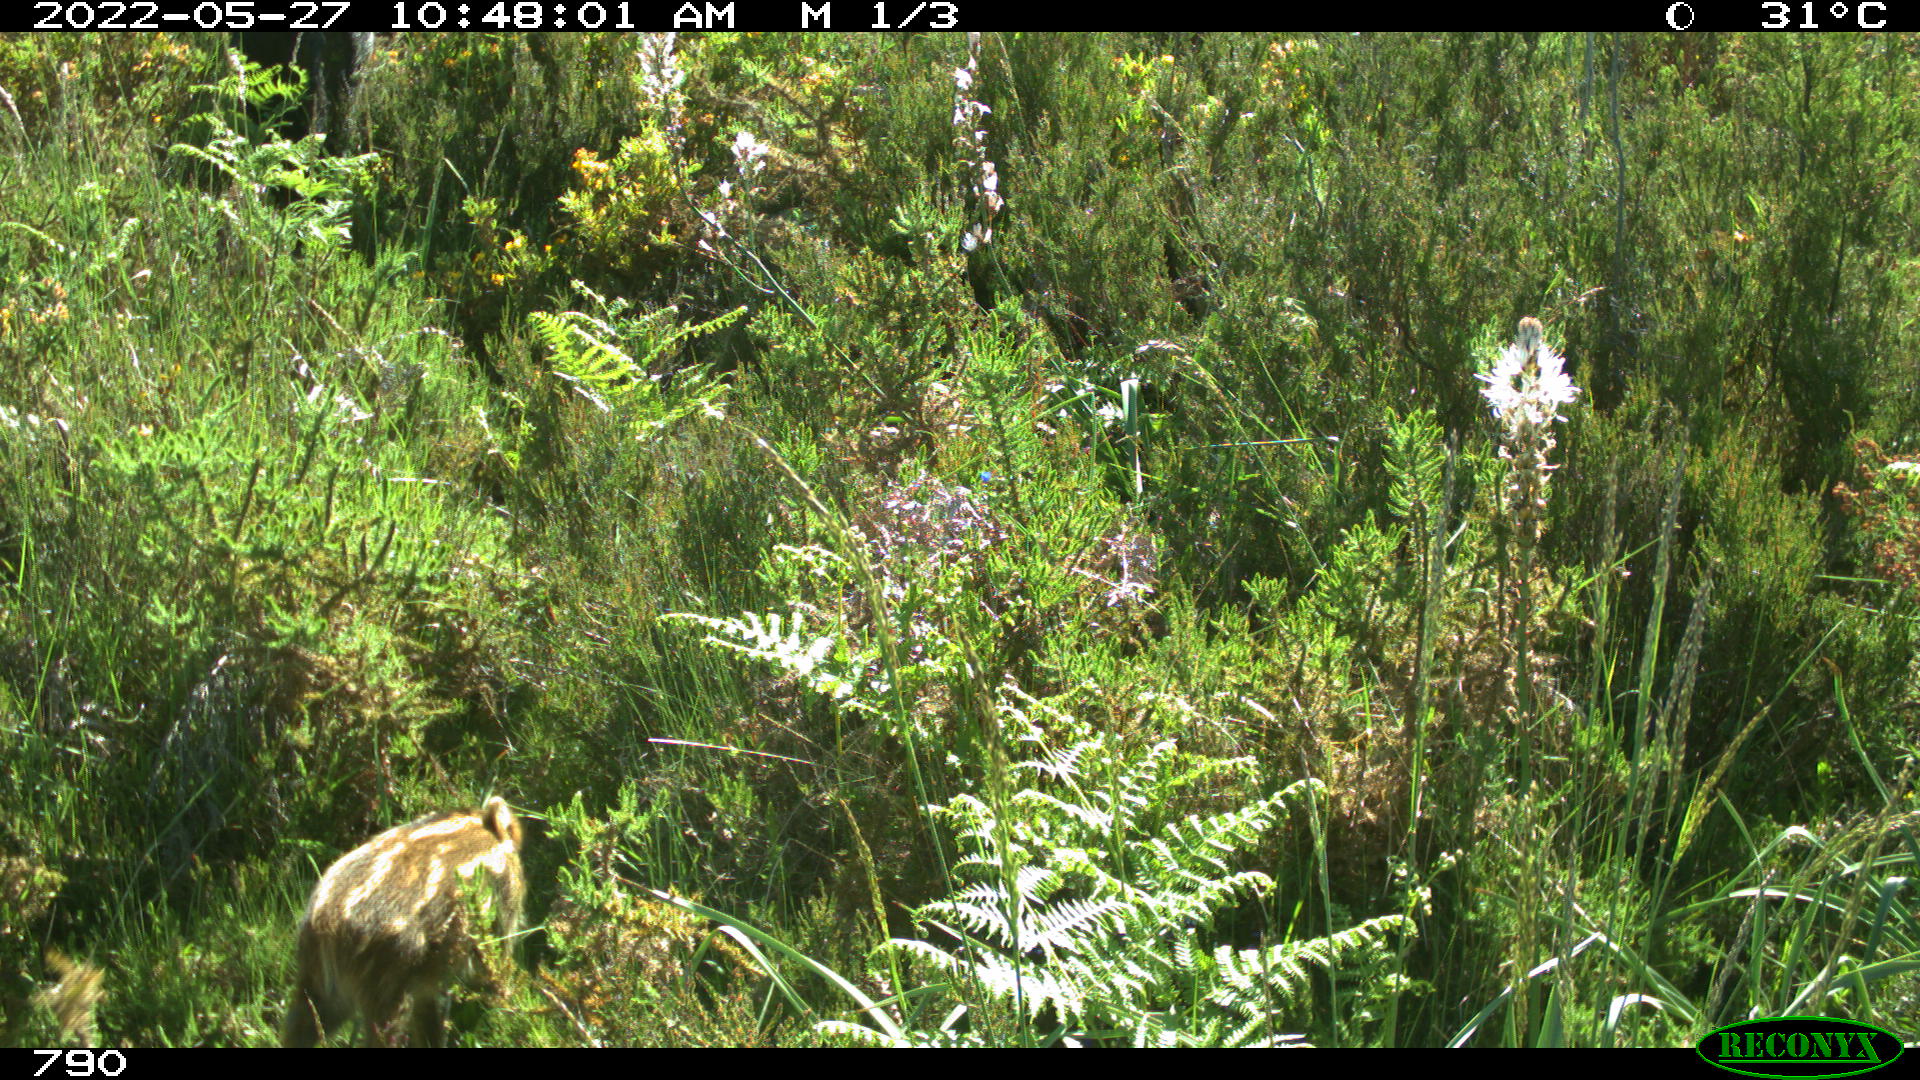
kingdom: Animalia
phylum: Chordata
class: Mammalia
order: Artiodactyla
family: Suidae
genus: Sus
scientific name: Sus scrofa
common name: Wild boar
